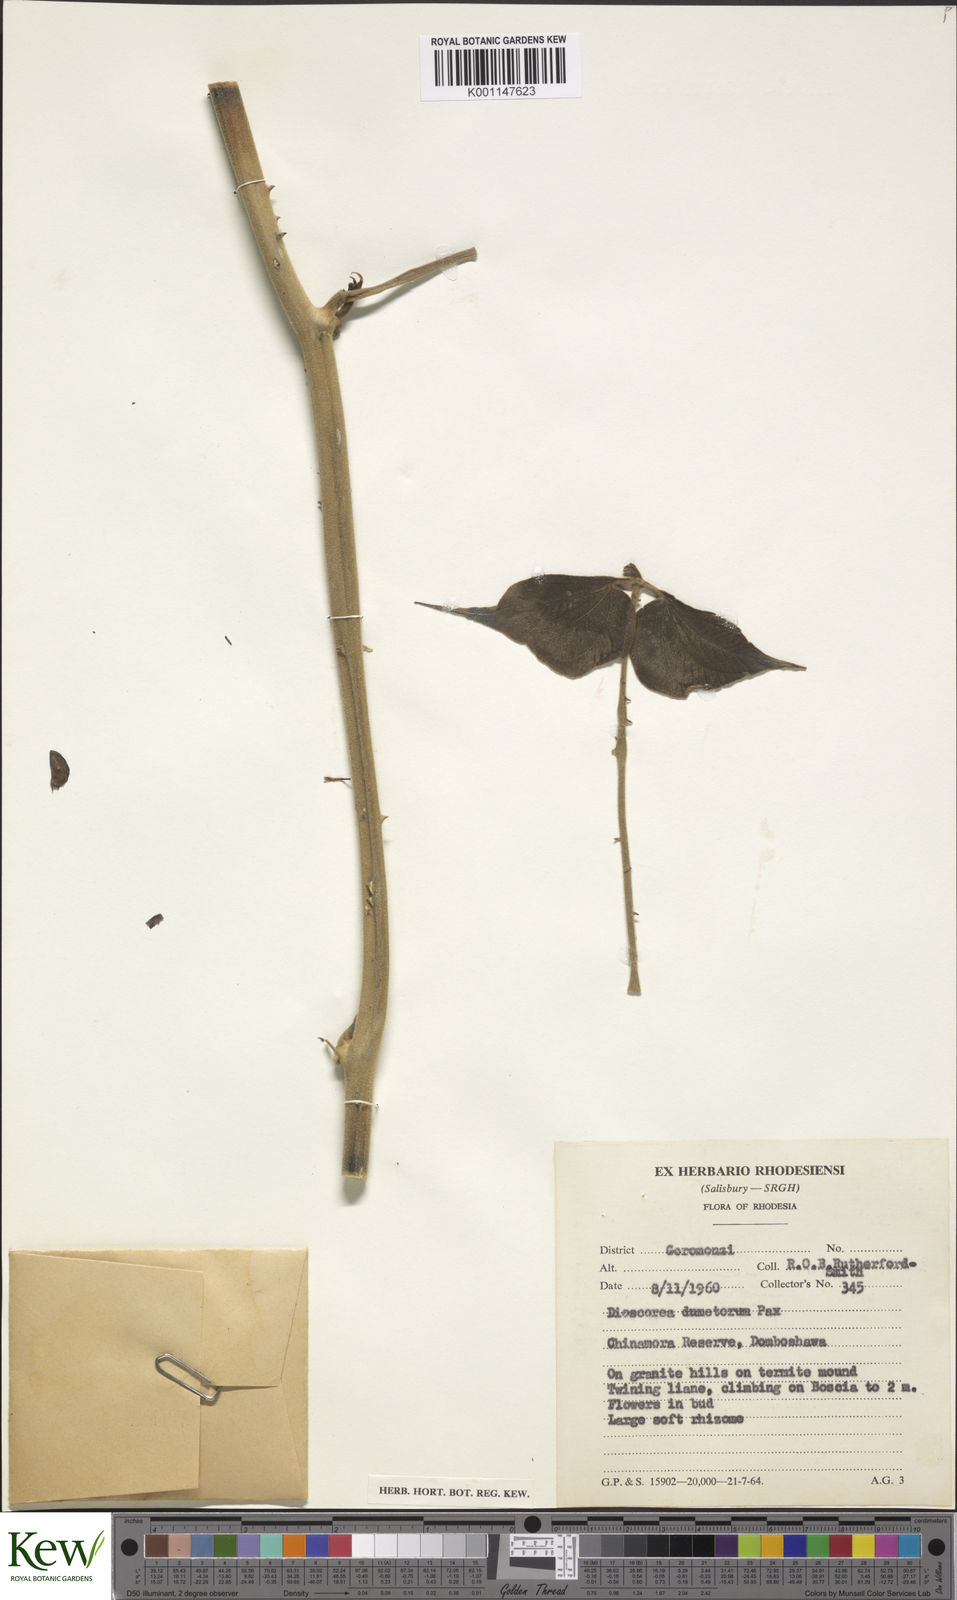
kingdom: Plantae
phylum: Tracheophyta
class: Liliopsida
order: Dioscoreales
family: Dioscoreaceae
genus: Dioscorea
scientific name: Dioscorea dumetorum
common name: African bitter yam
